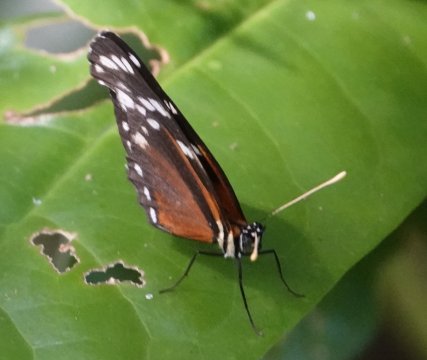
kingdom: Animalia
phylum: Arthropoda
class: Insecta
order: Lepidoptera
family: Nymphalidae
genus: Napeogenes
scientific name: Napeogenes tolosa
